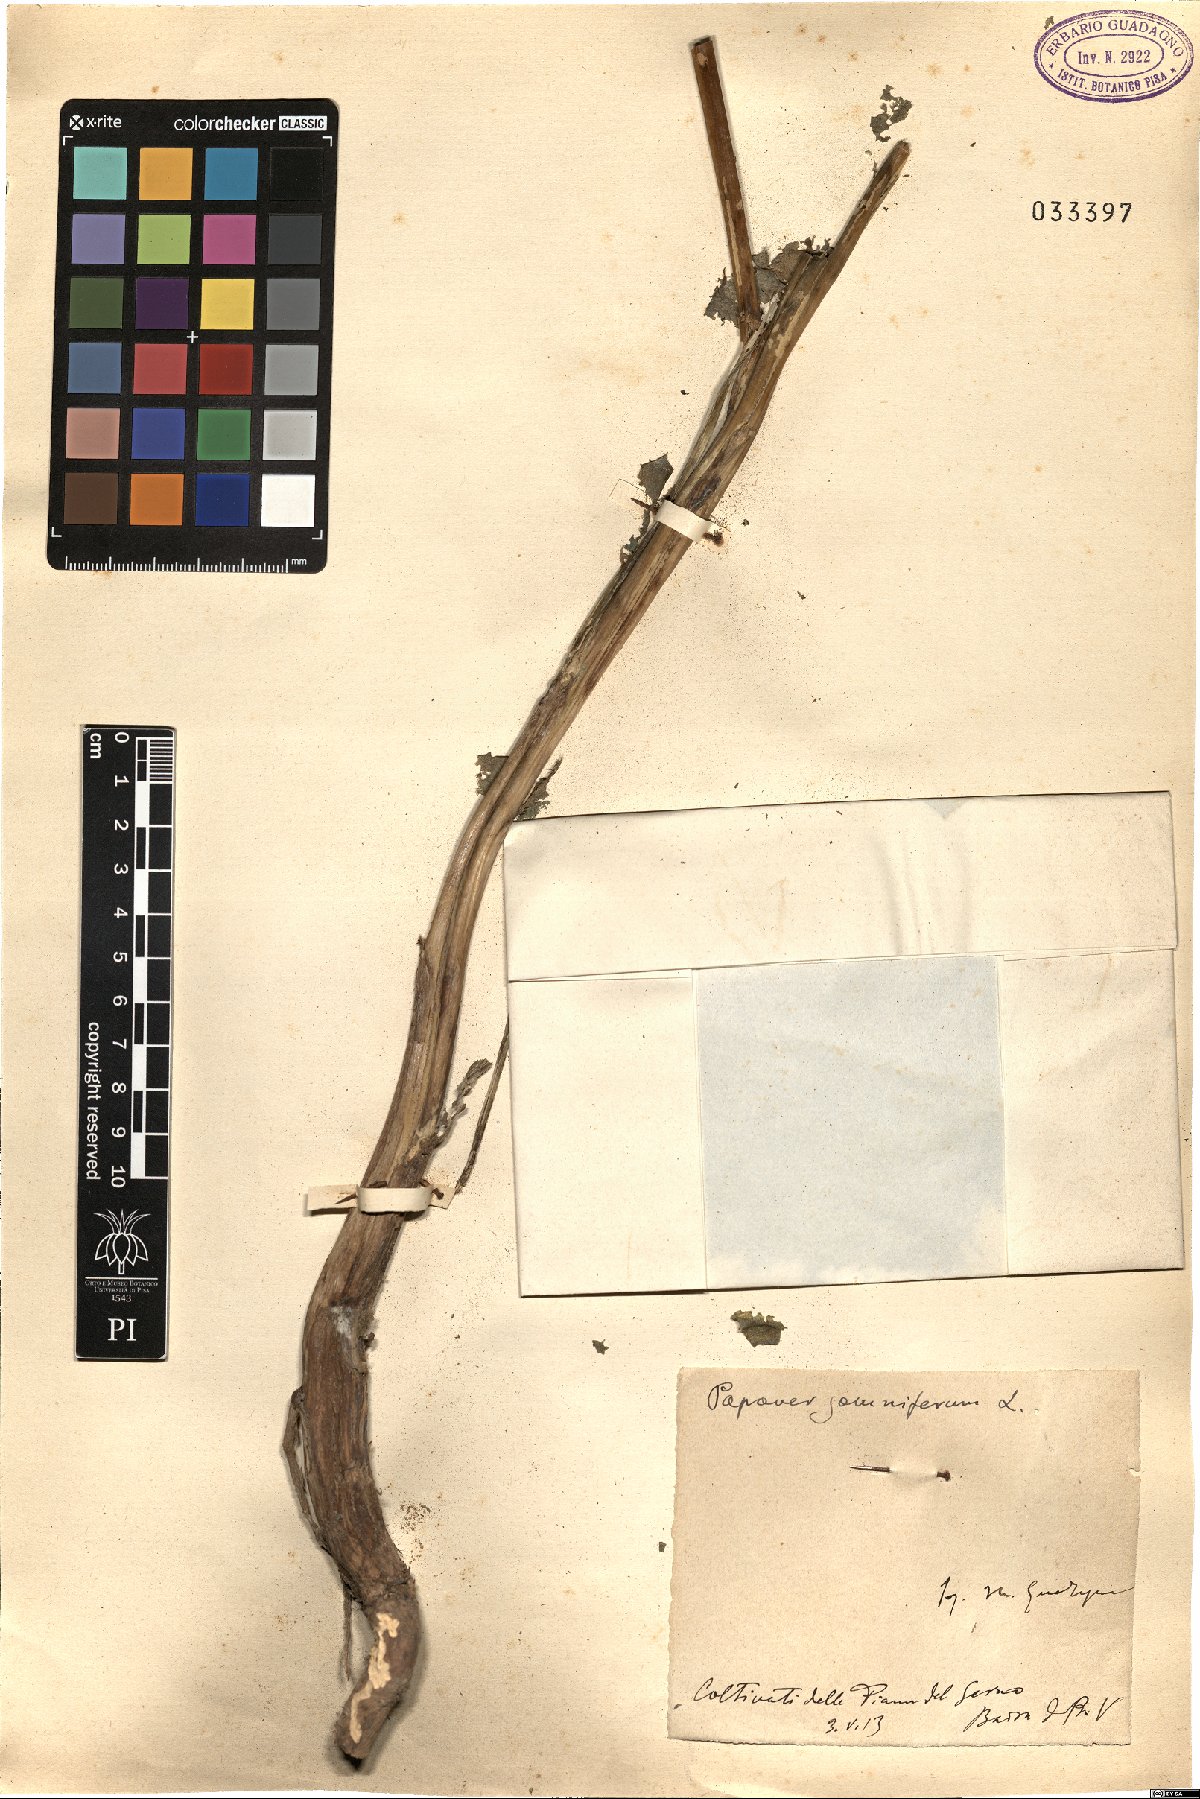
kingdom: Plantae
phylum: Tracheophyta
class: Magnoliopsida
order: Ranunculales
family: Papaveraceae
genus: Papaver
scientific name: Papaver somniferum
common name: Opium poppy
